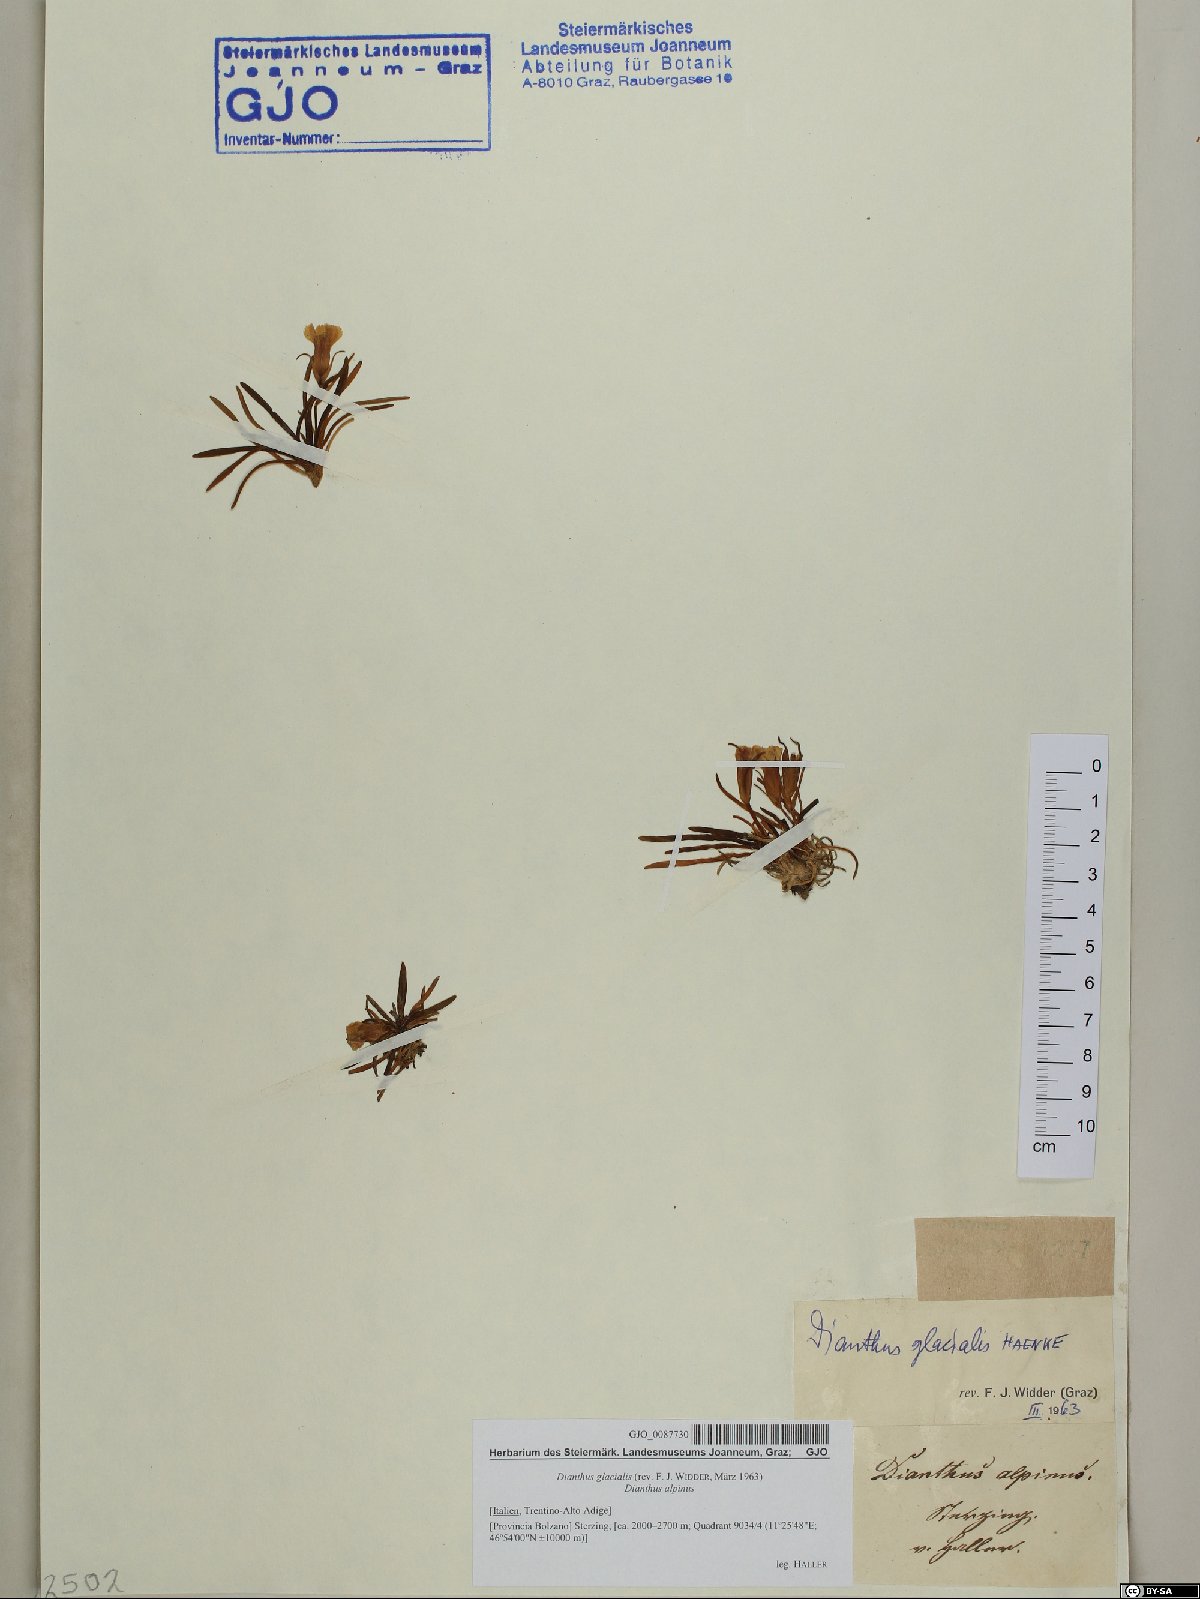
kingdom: Plantae
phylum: Tracheophyta
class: Magnoliopsida
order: Caryophyllales
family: Caryophyllaceae
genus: Dianthus
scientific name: Dianthus glacialis
